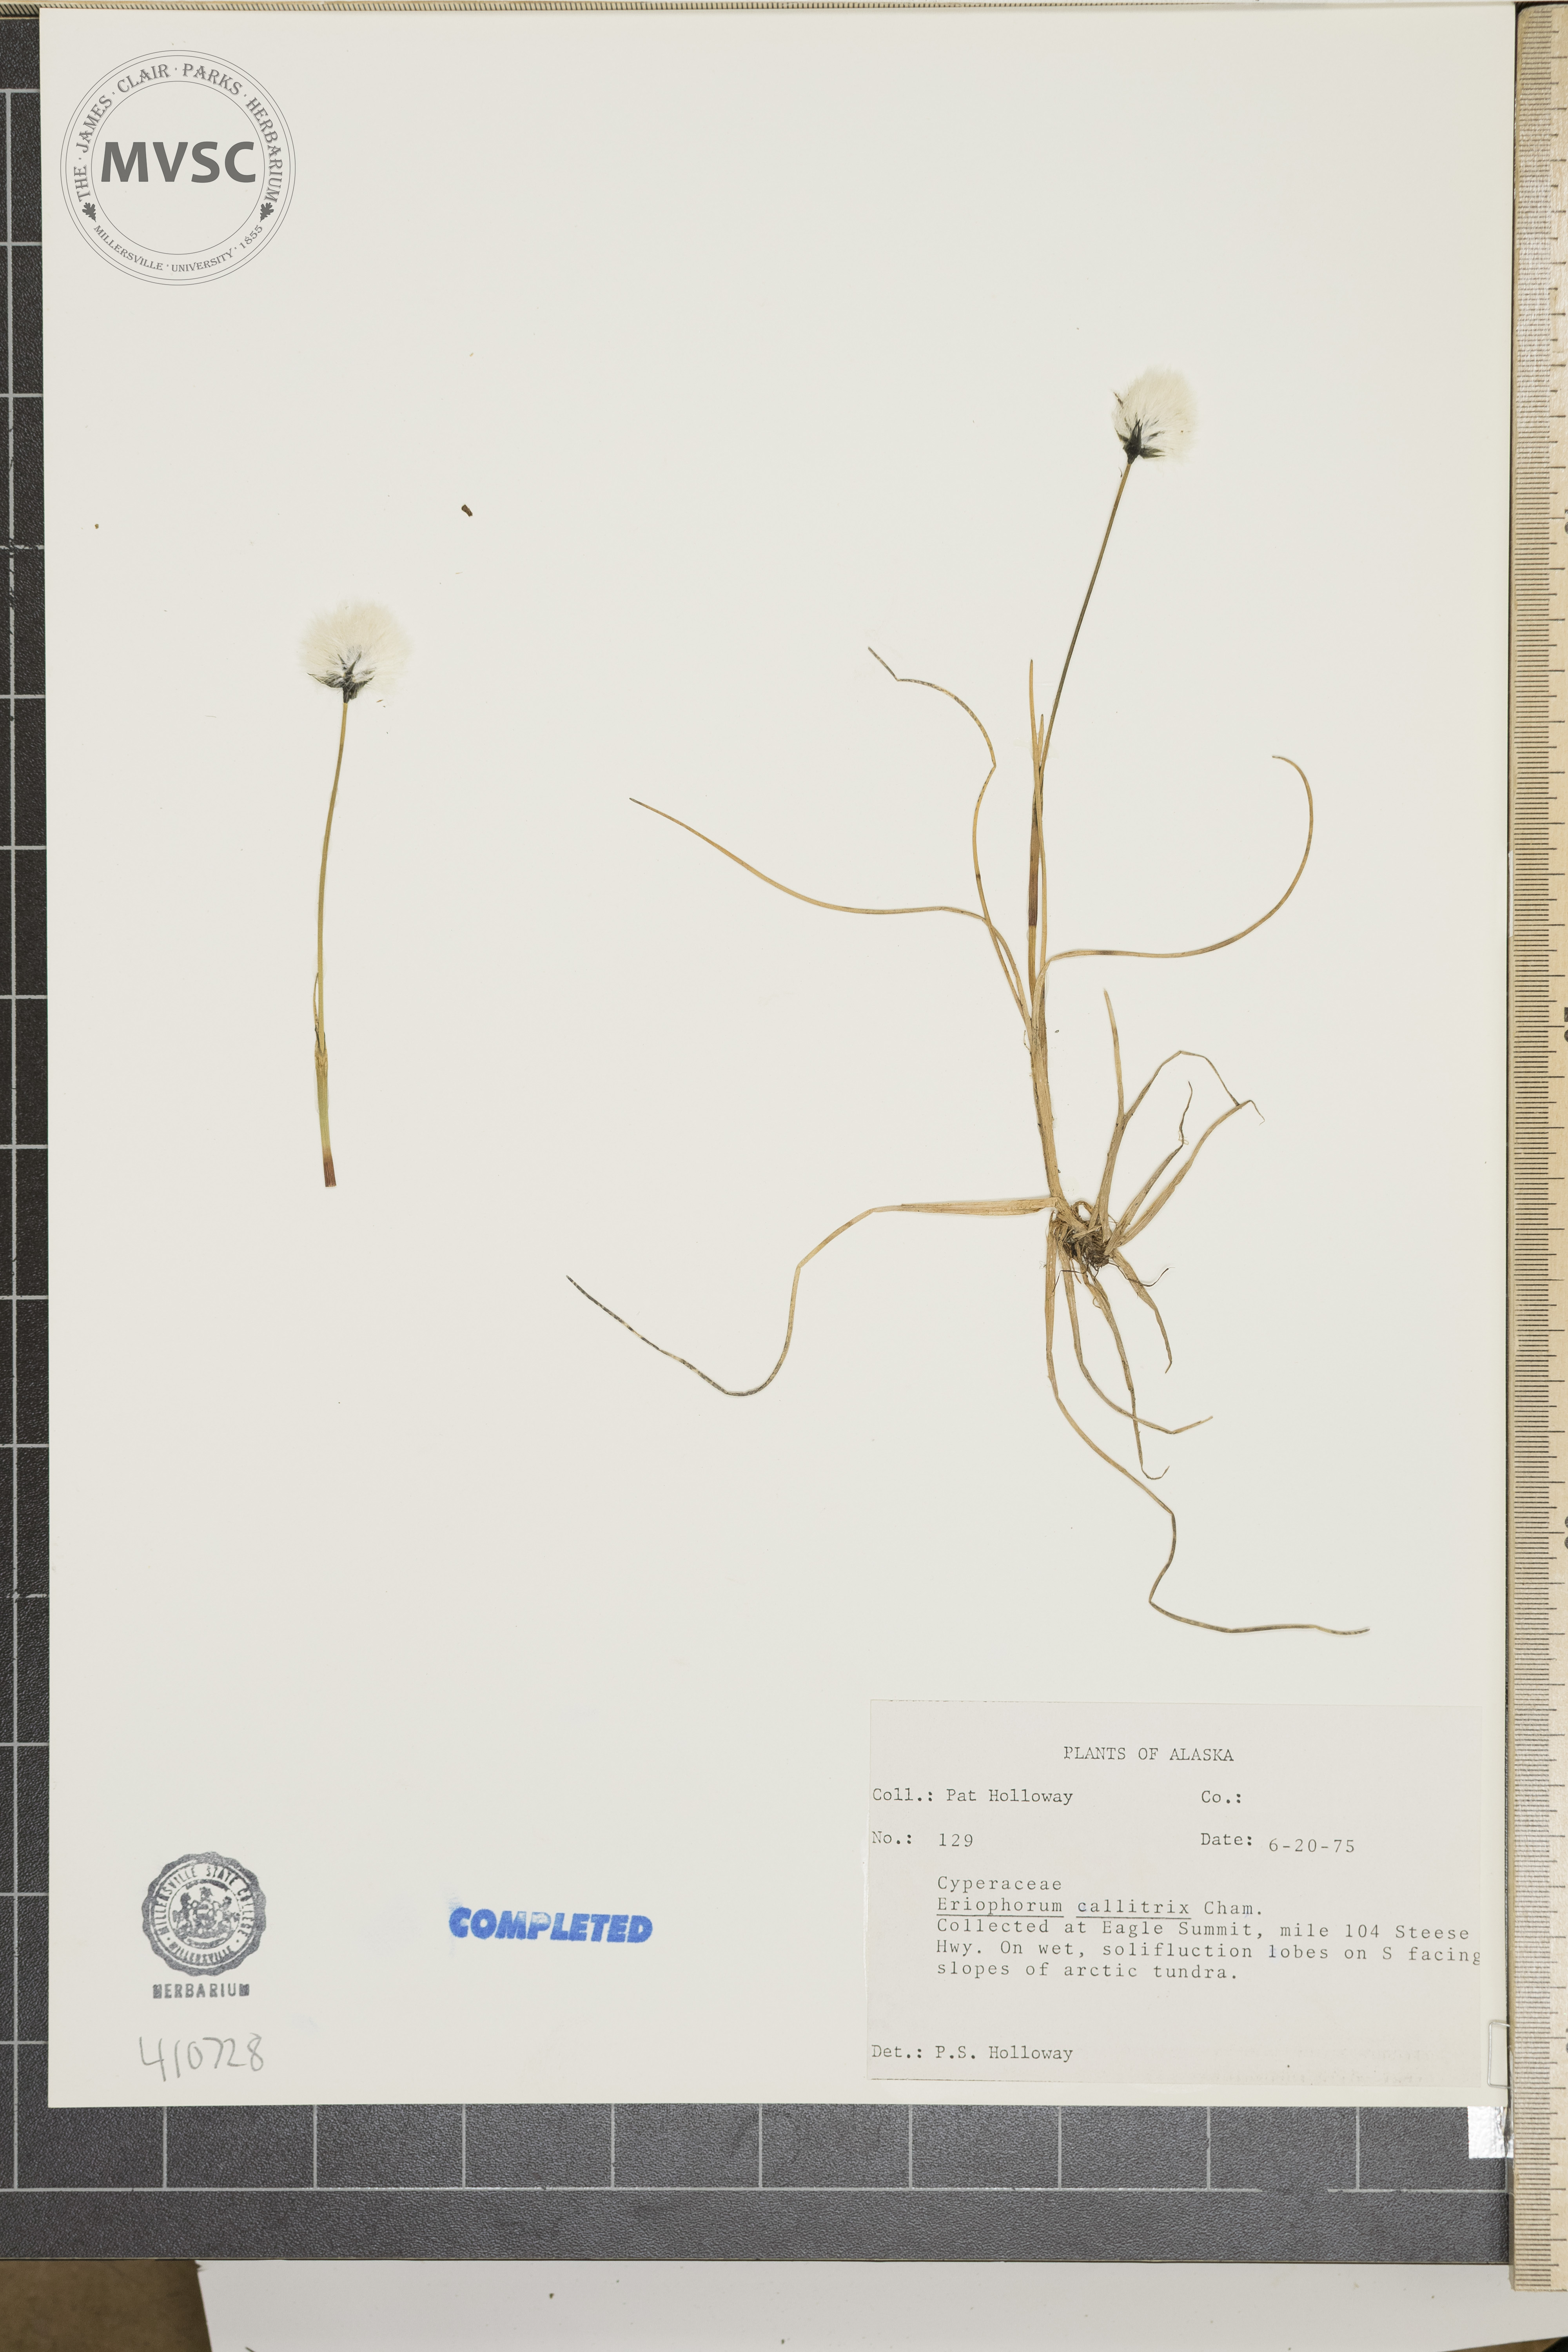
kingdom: Plantae
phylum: Tracheophyta
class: Liliopsida
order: Poales
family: Cyperaceae
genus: Eriophorum
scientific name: Eriophorum callitrix
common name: Arctic cottongrass
